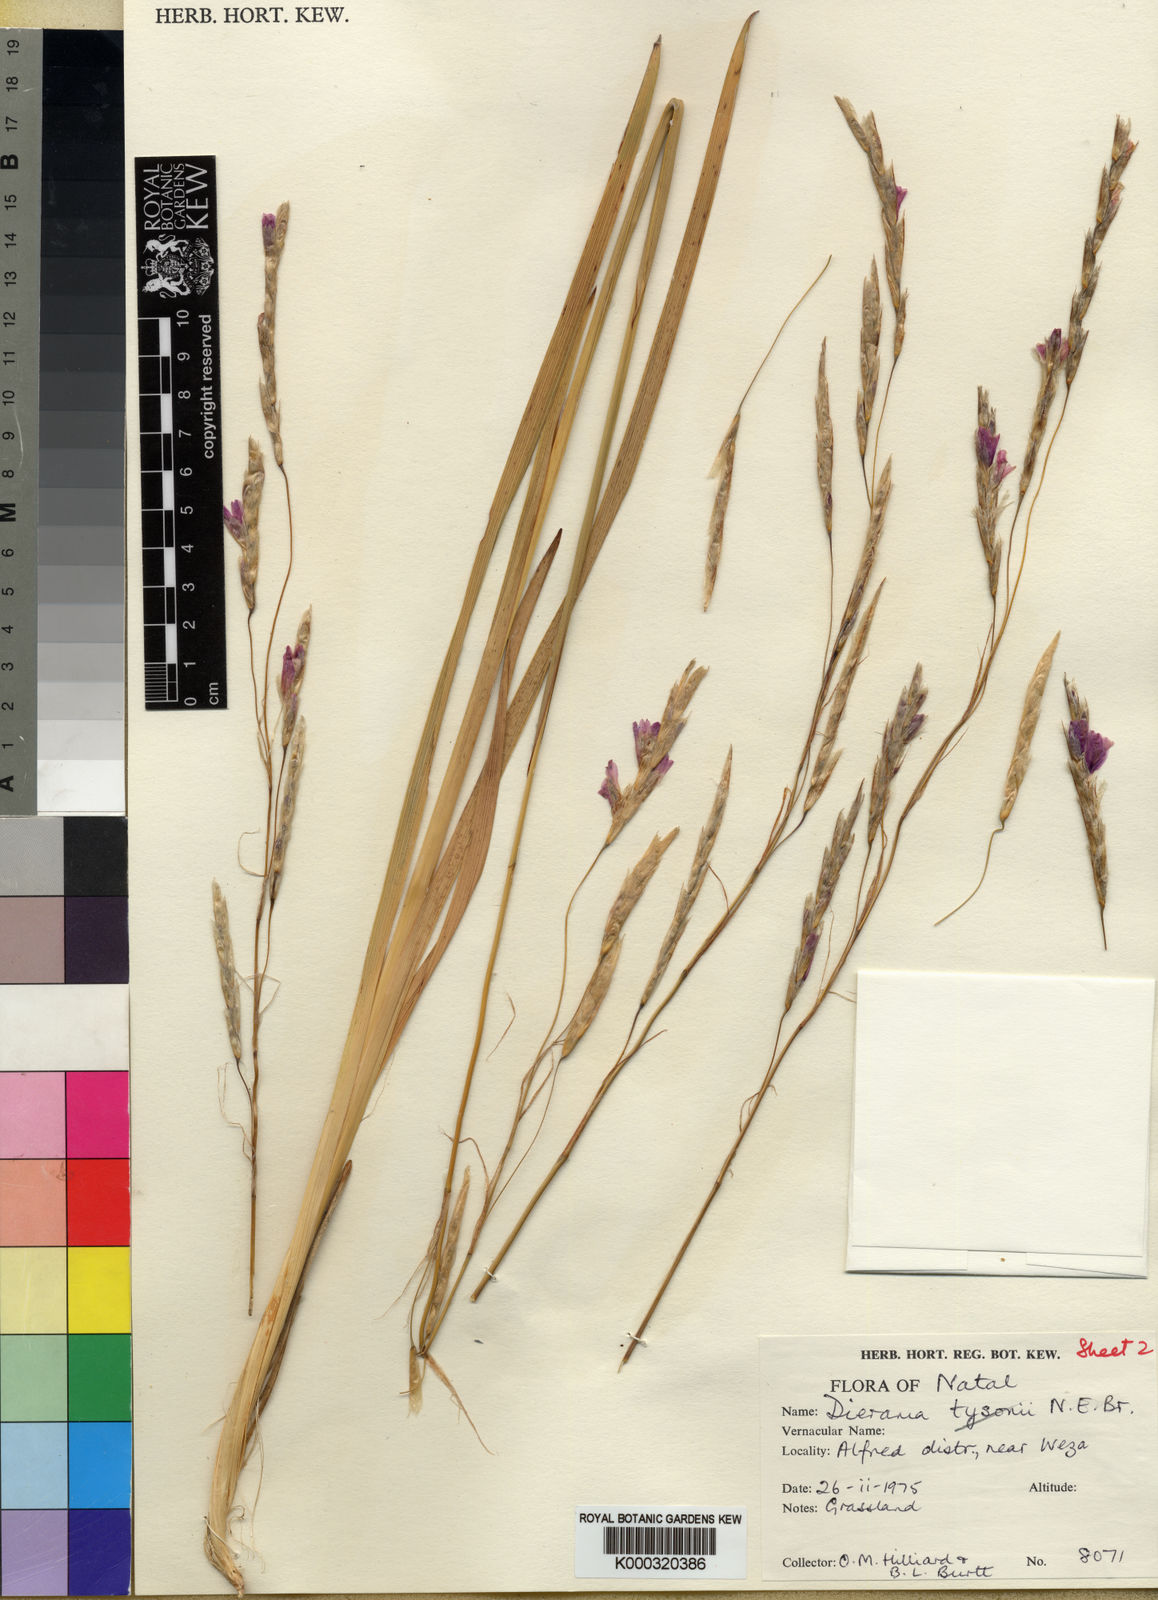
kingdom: Plantae
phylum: Tracheophyta
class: Liliopsida
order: Asparagales
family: Iridaceae
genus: Dierama
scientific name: Dierama ambiguum
